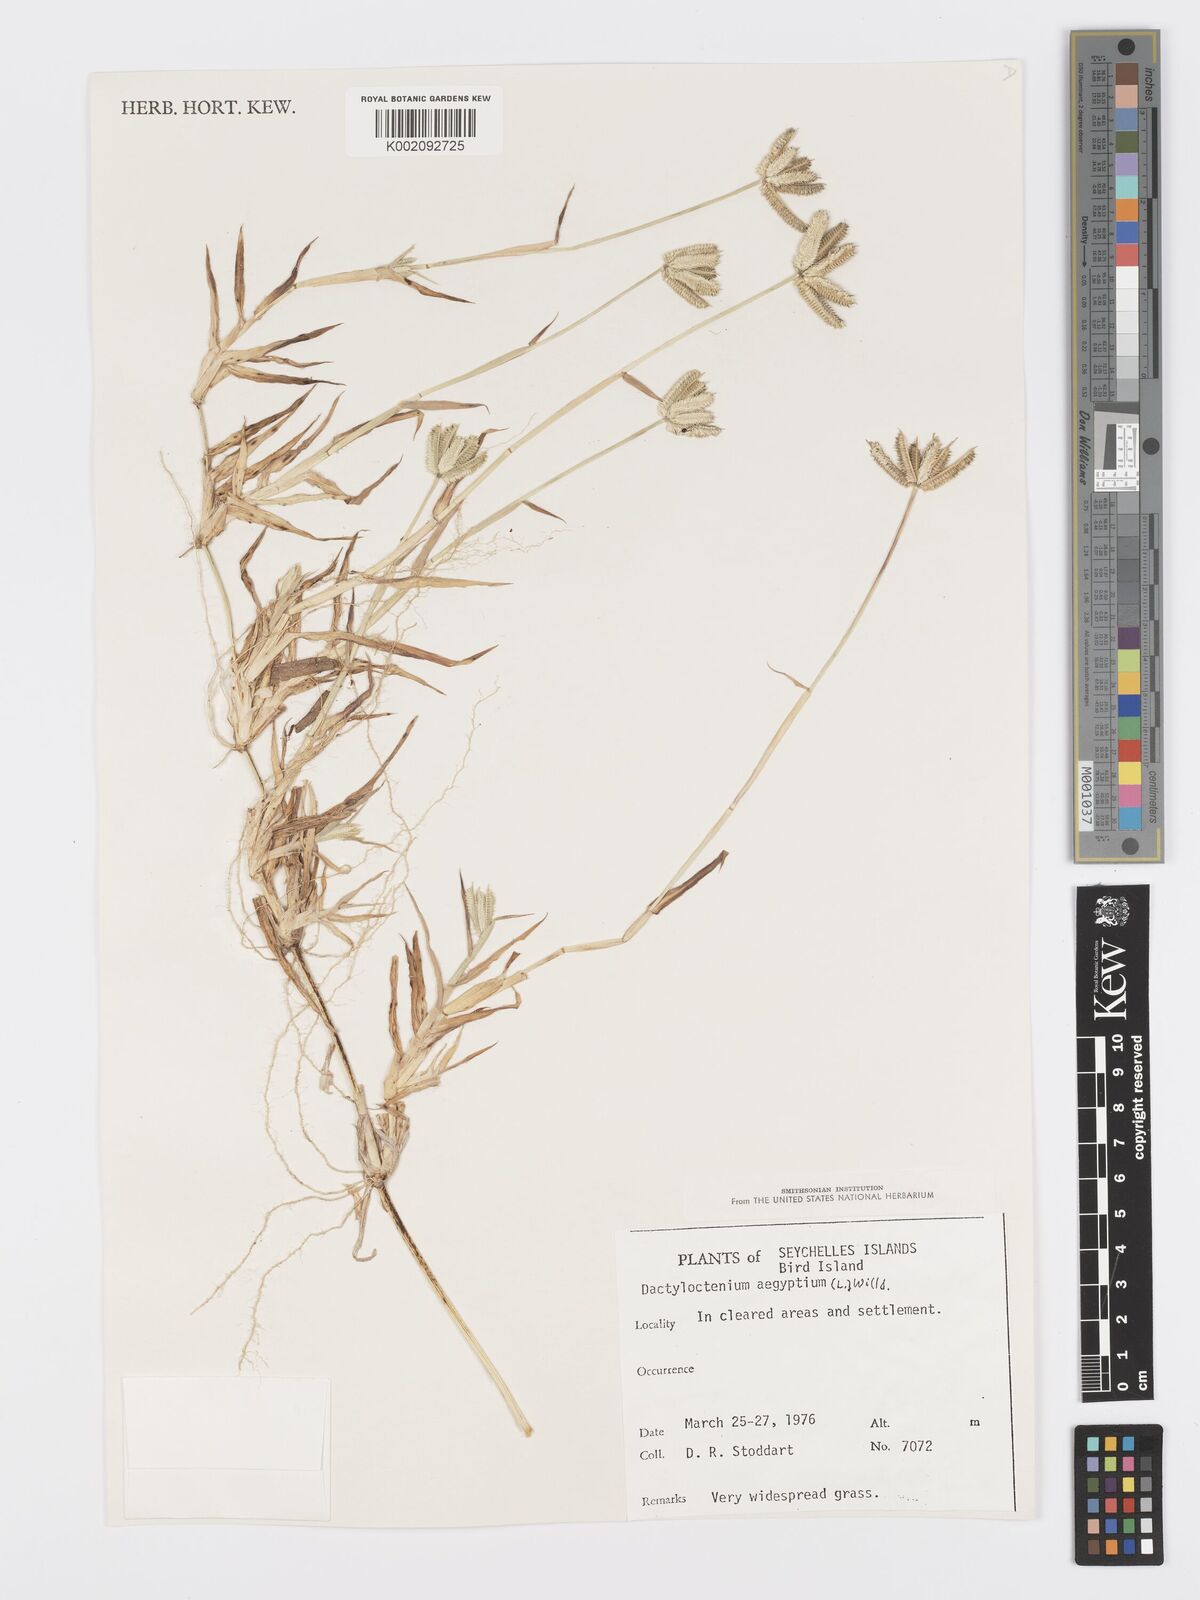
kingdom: Plantae
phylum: Tracheophyta
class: Liliopsida
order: Poales
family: Poaceae
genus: Dactyloctenium
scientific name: Dactyloctenium aegyptium
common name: Egyptian grass
